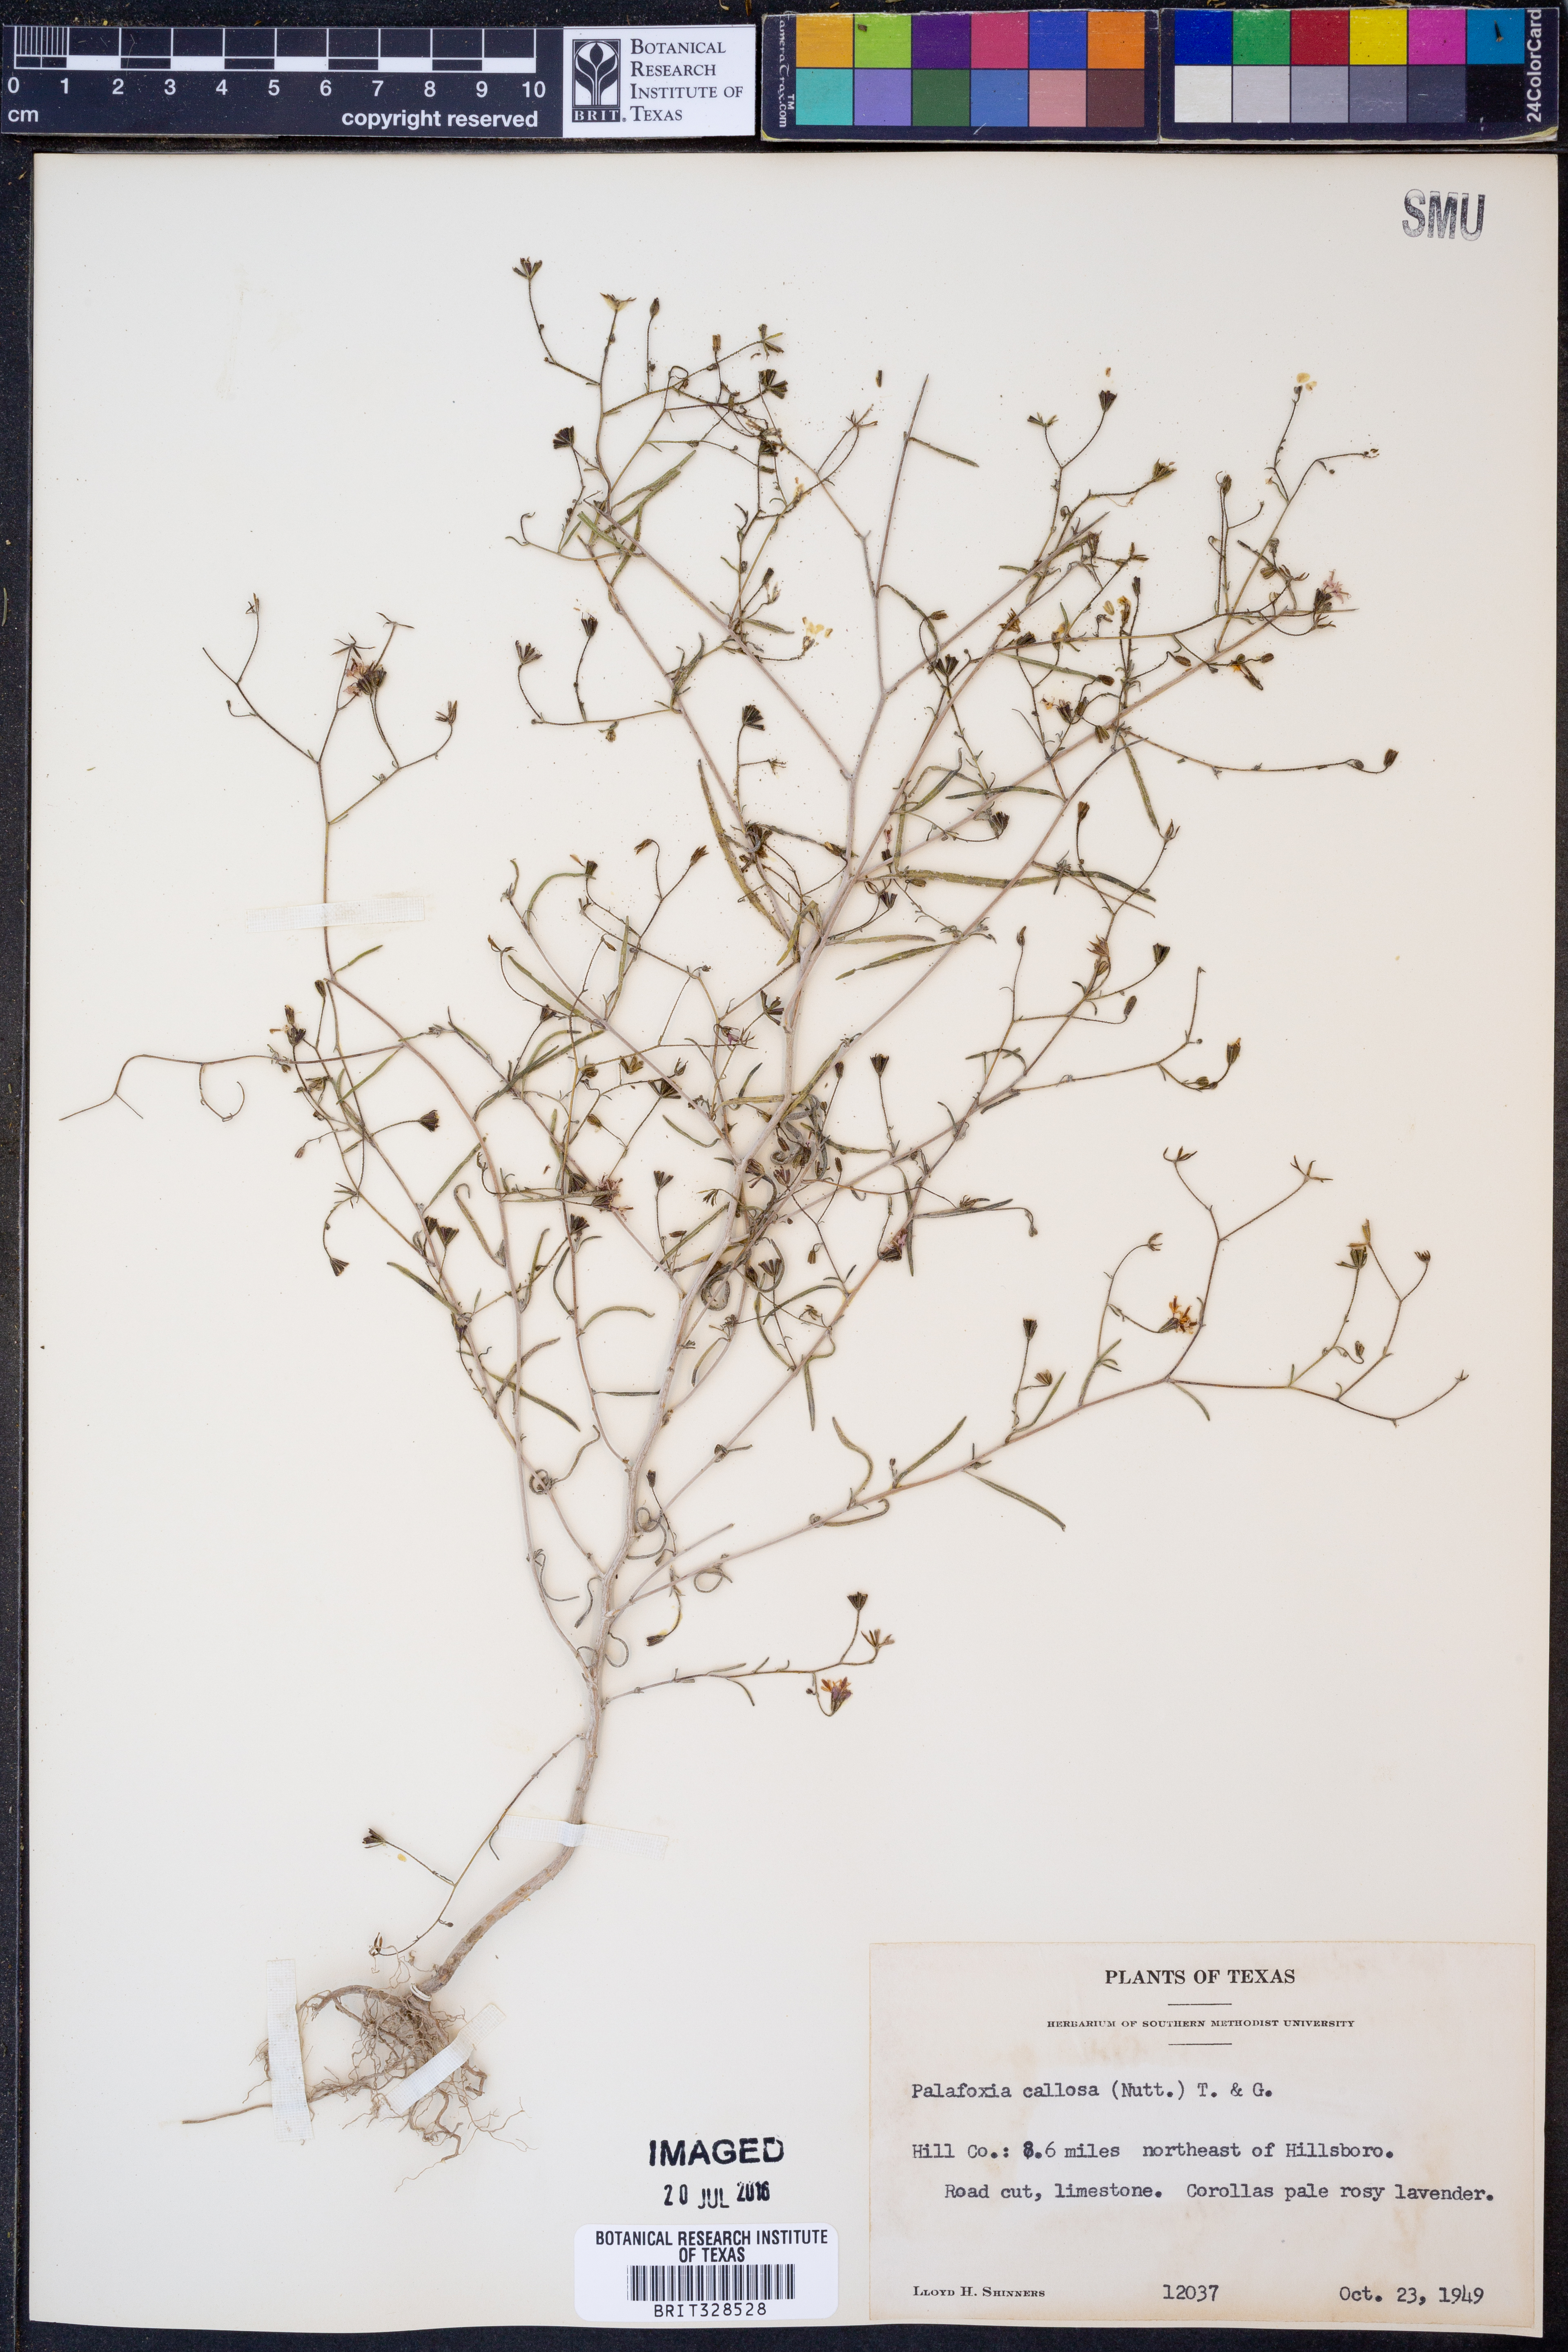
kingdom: Plantae
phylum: Tracheophyta
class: Magnoliopsida
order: Asterales
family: Asteraceae
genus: Palafoxia
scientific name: Palafoxia callosa
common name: Small palafox
